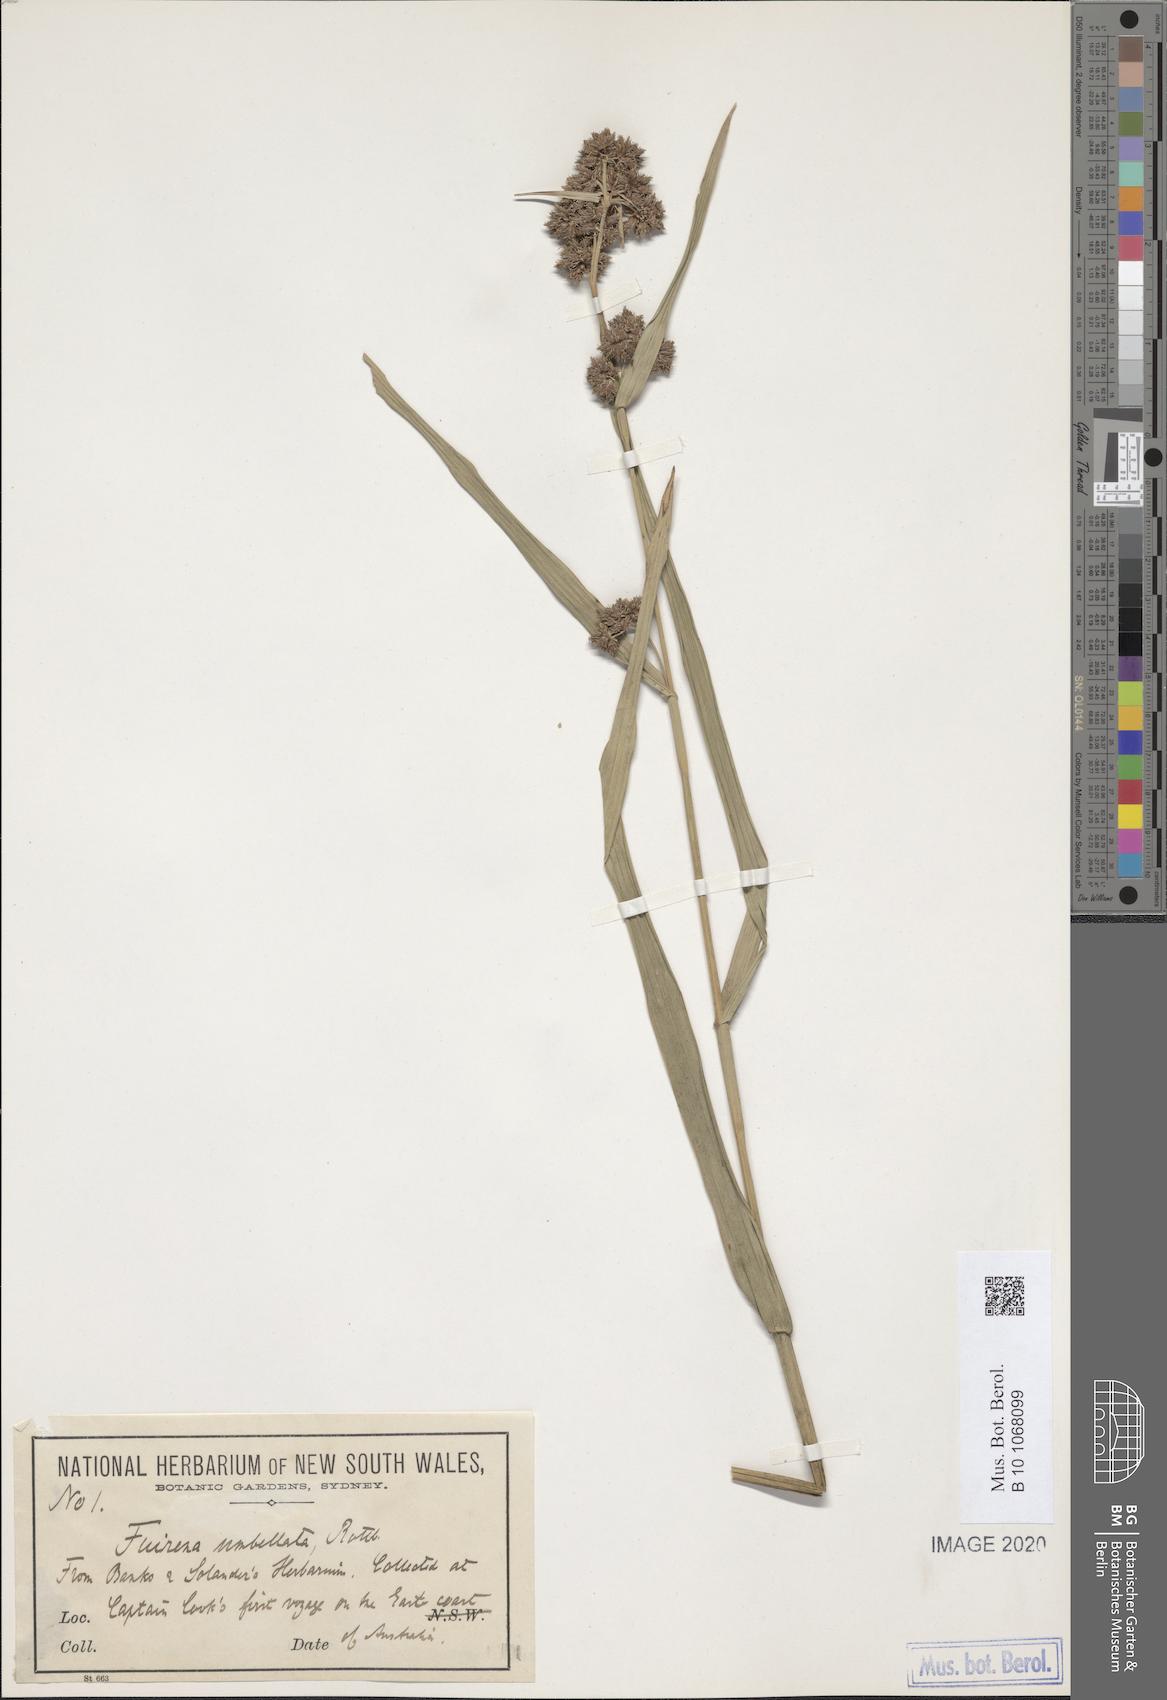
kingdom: Plantae
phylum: Tracheophyta
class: Liliopsida
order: Poales
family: Cyperaceae
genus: Fuirena
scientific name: Fuirena umbellata
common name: Yefen
